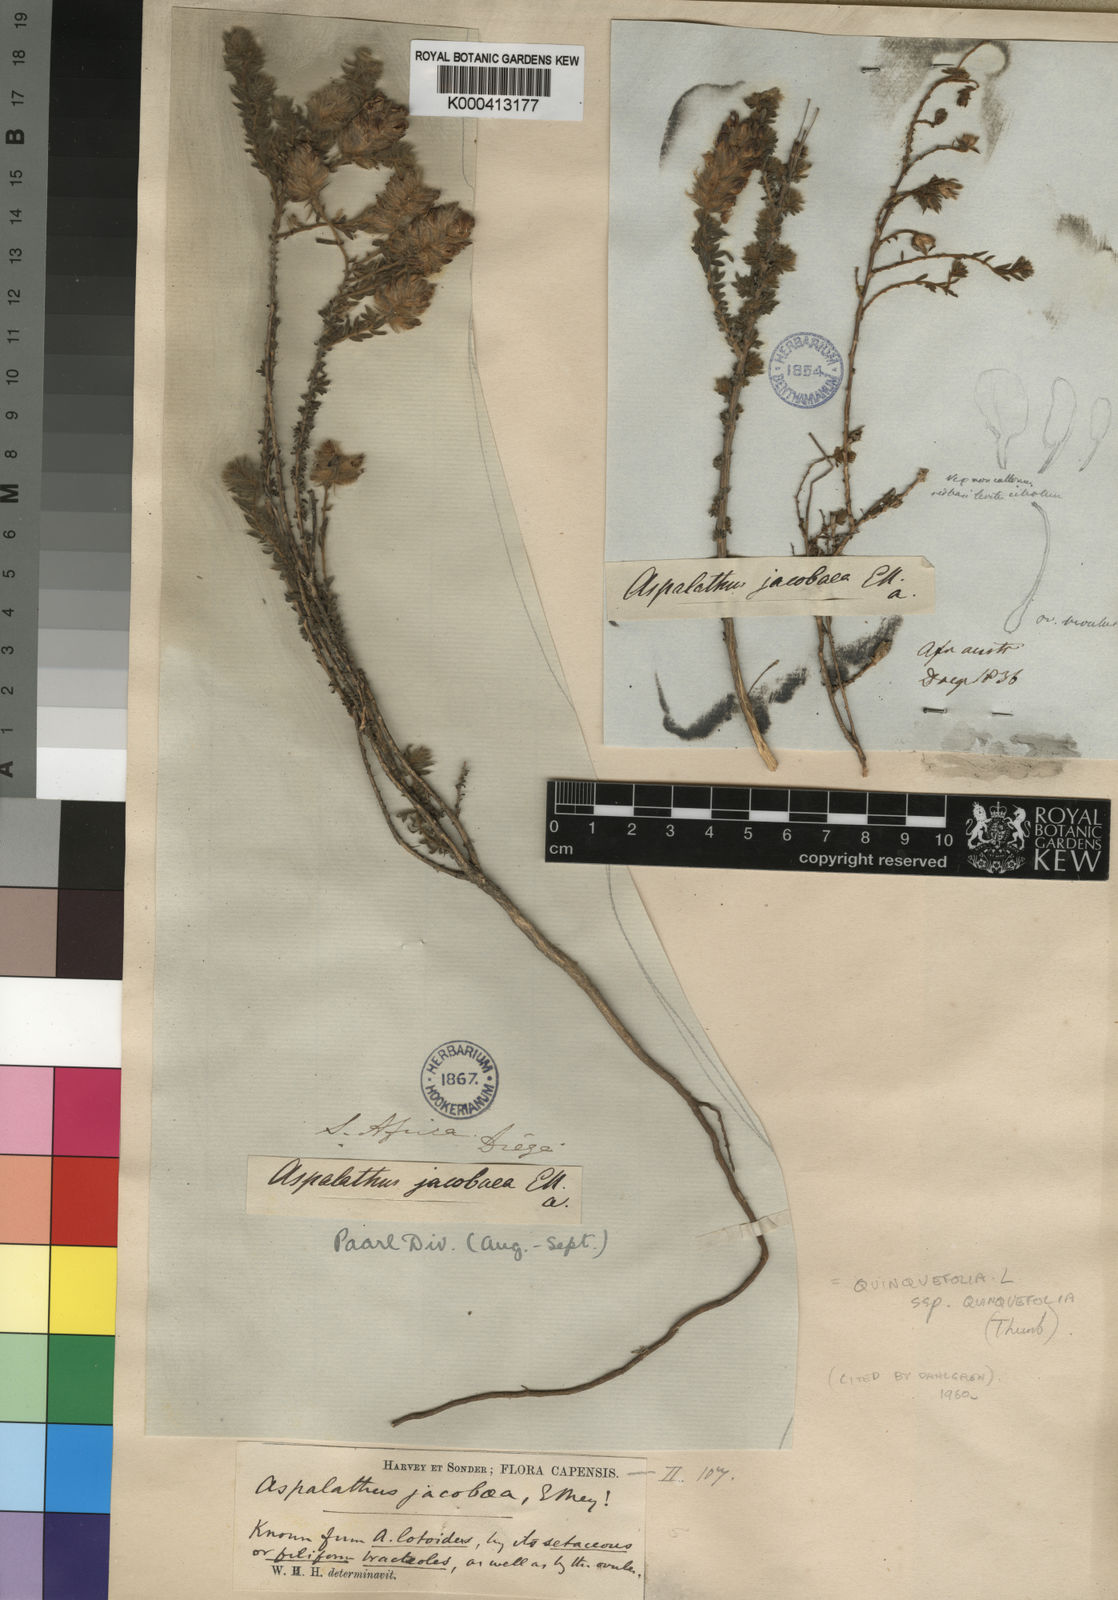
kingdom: Plantae
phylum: Tracheophyta
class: Magnoliopsida
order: Fabales
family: Fabaceae
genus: Aspalathus
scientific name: Aspalathus quinquefolia
